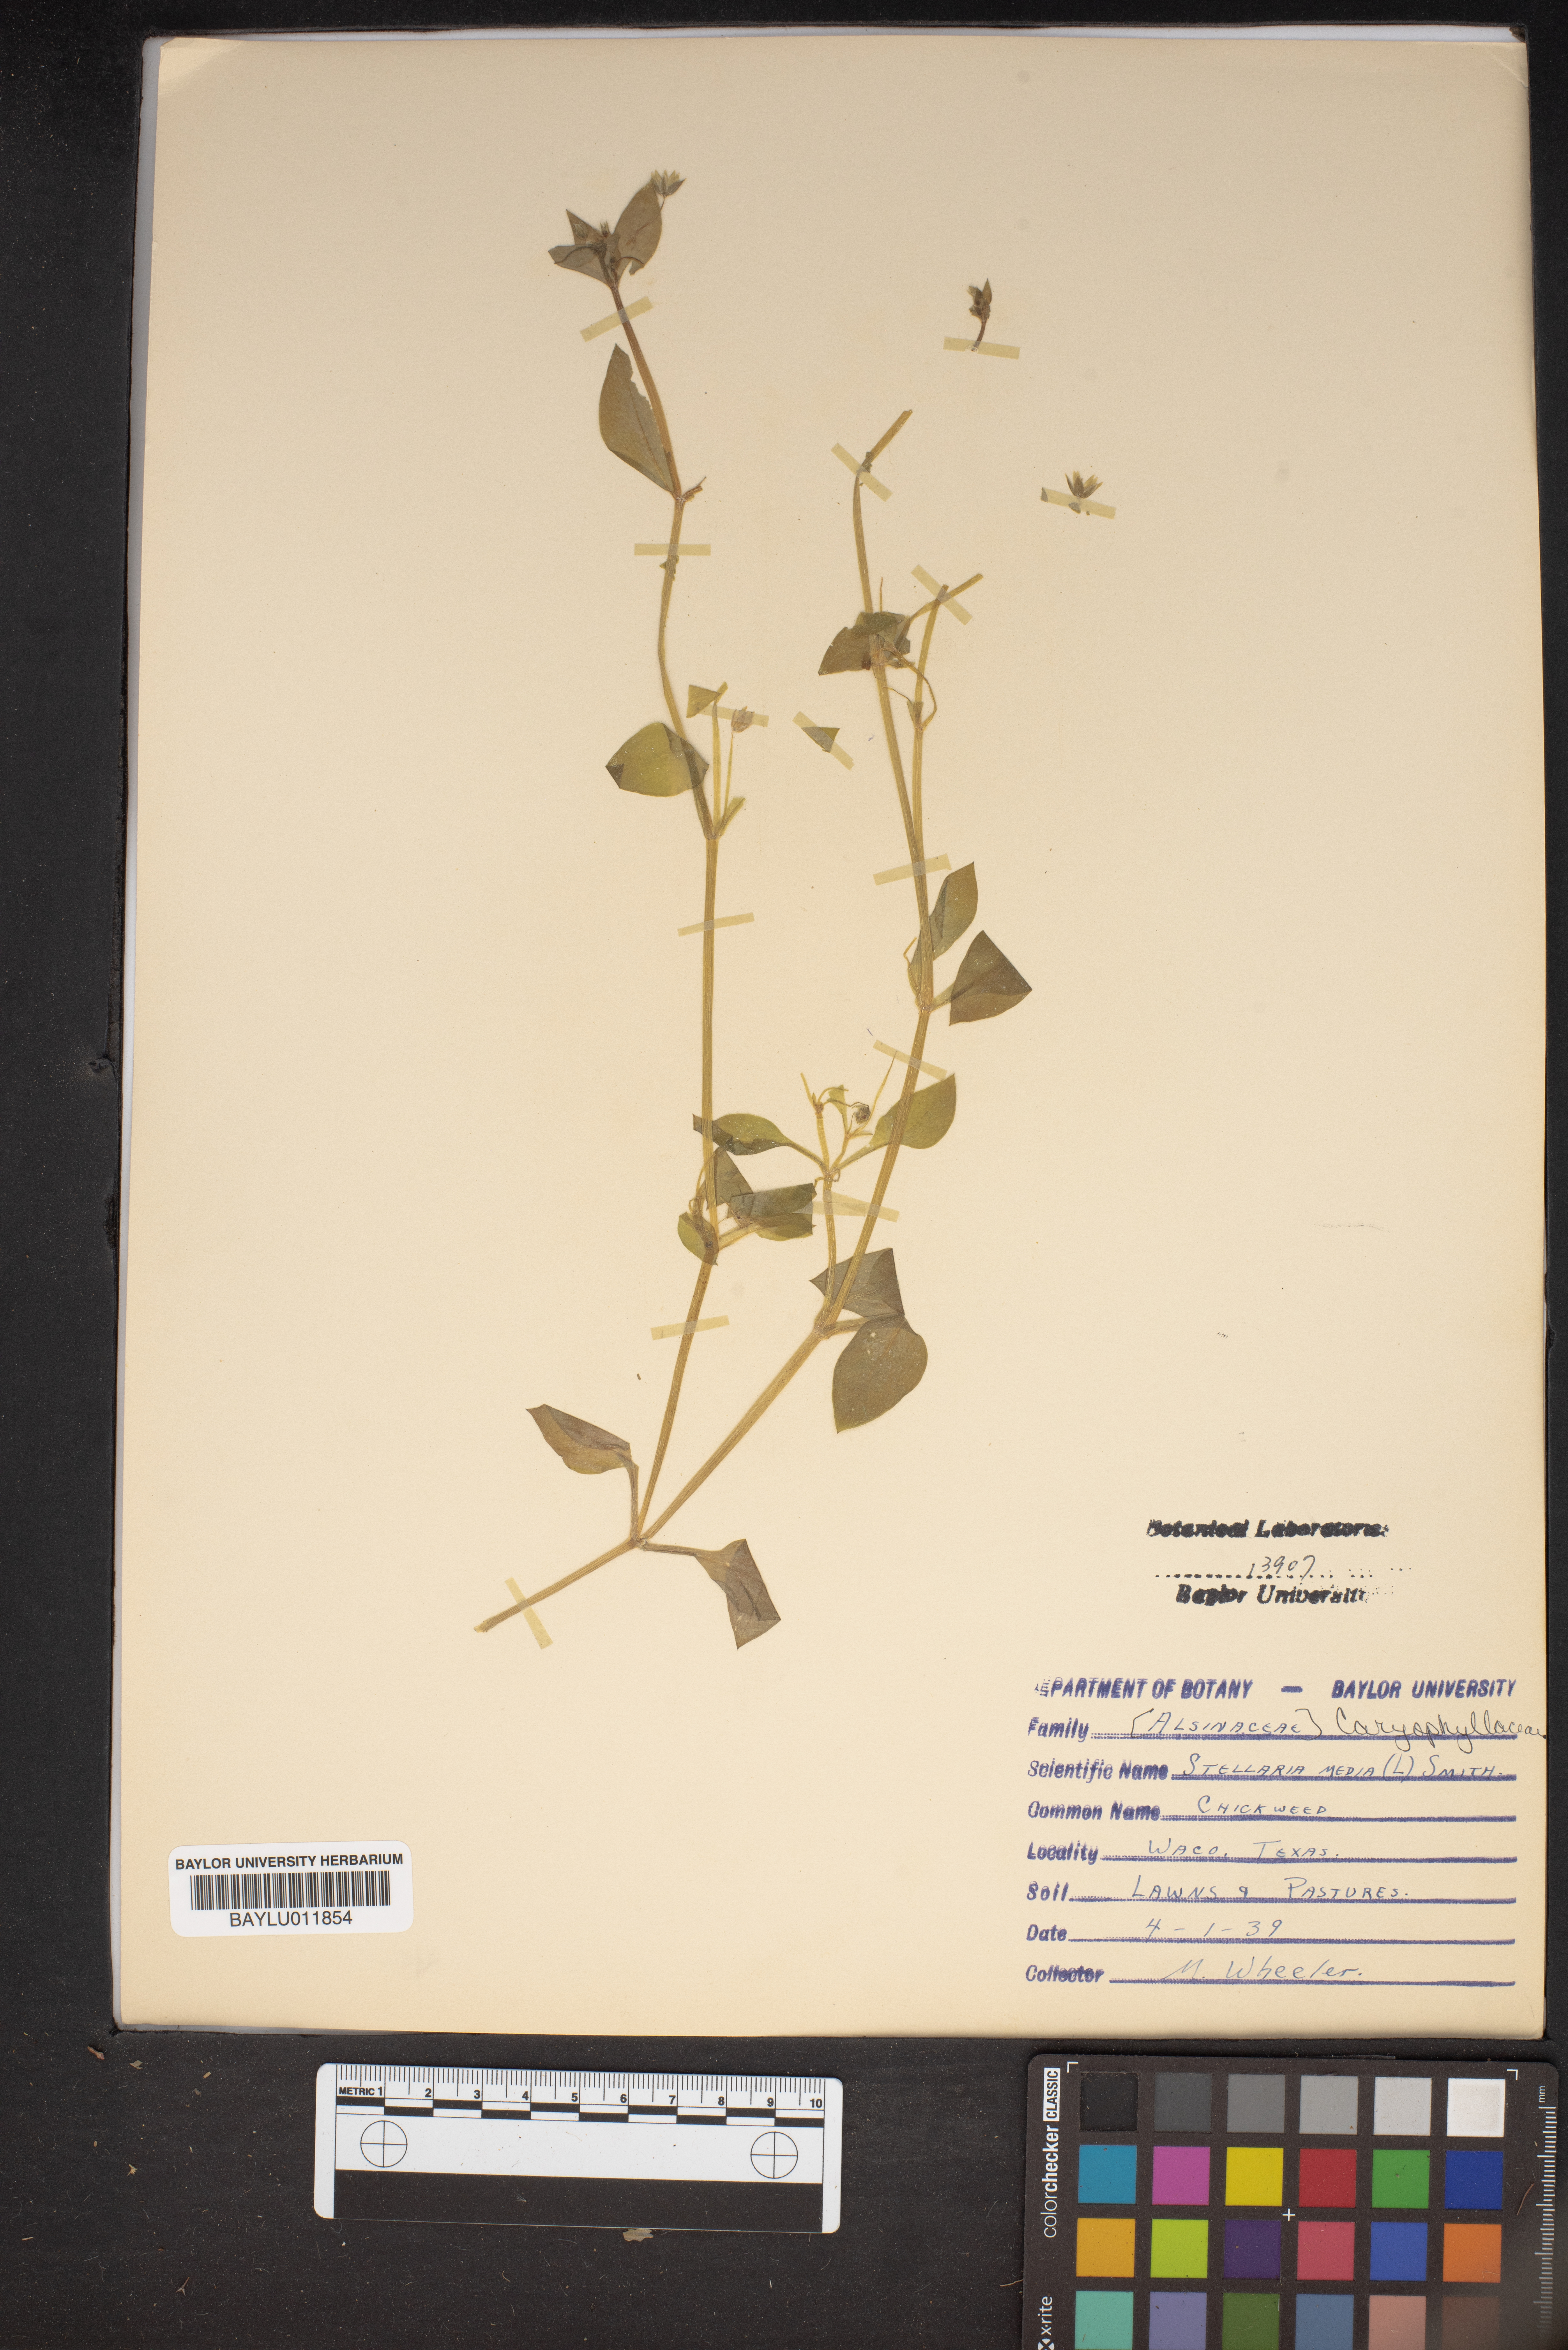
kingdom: Plantae
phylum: Tracheophyta
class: Magnoliopsida
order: Caryophyllales
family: Caryophyllaceae
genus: Stellaria
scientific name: Stellaria media
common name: Common chickweed
